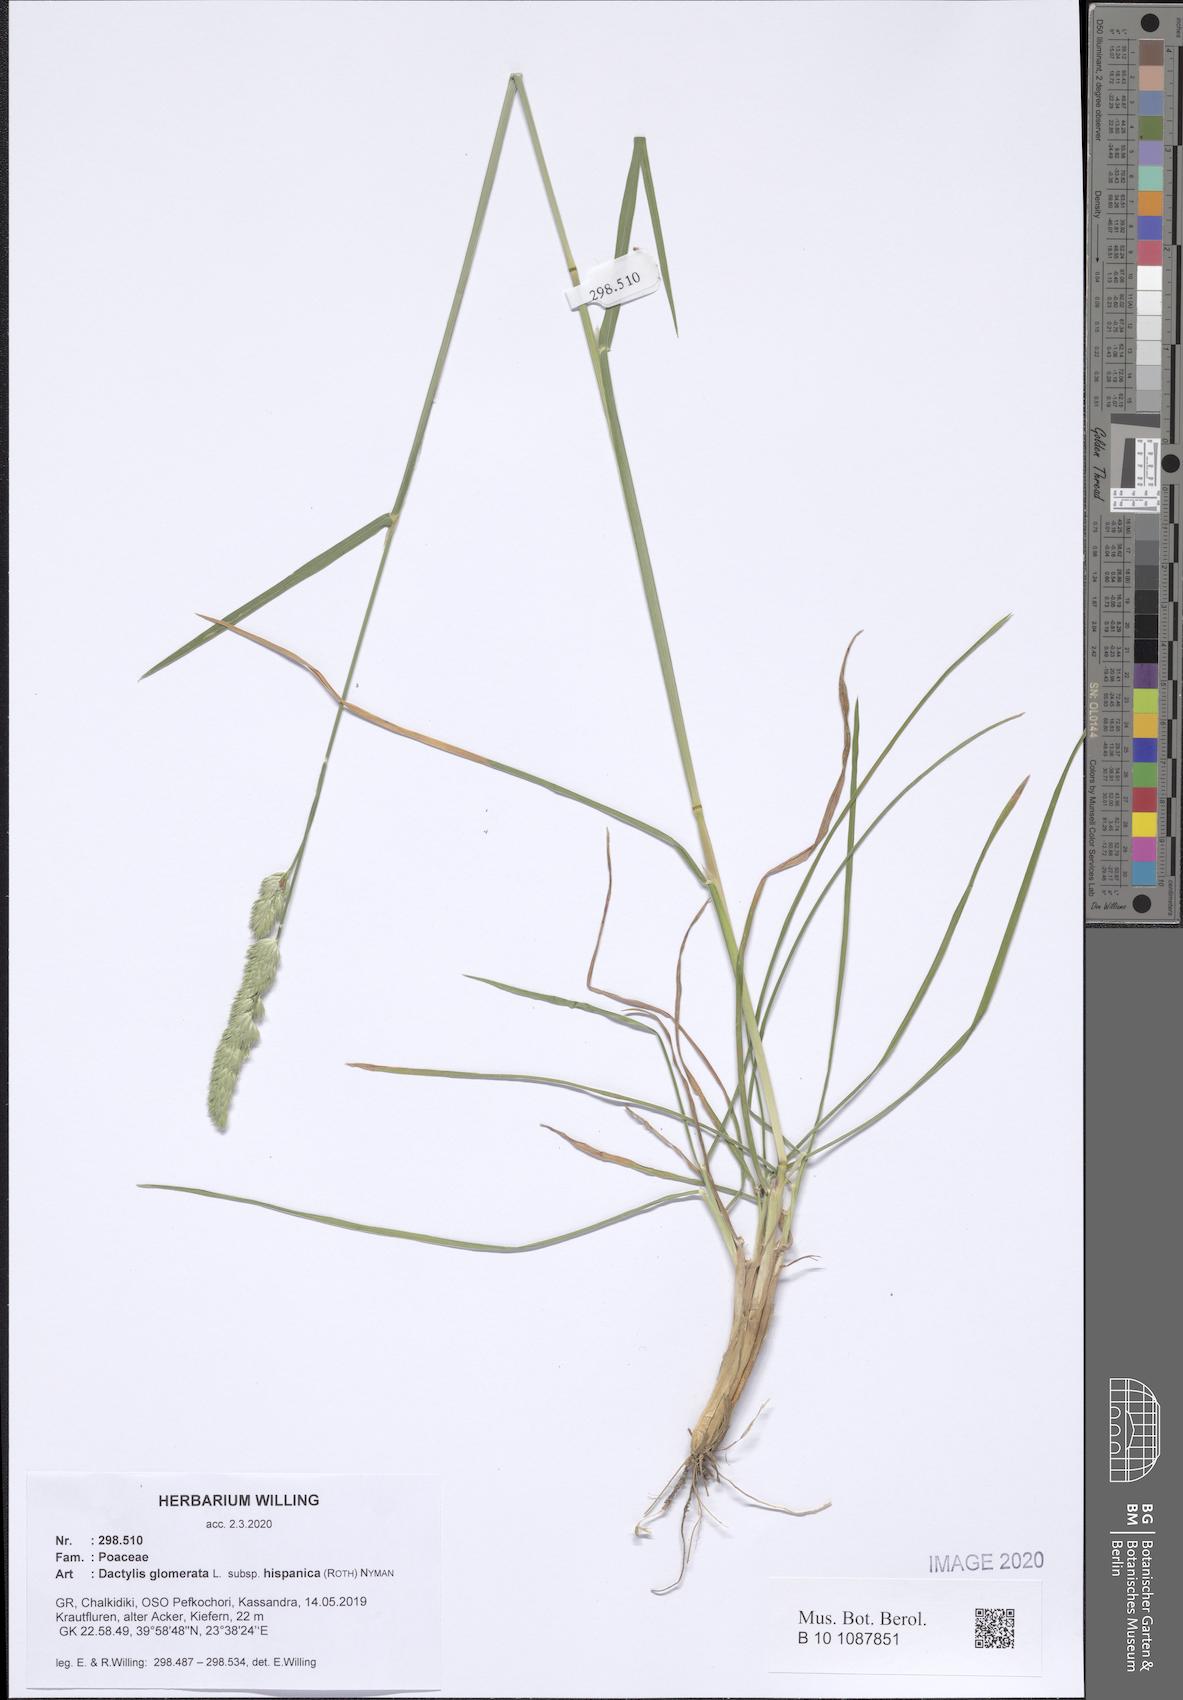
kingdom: Plantae
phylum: Tracheophyta
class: Liliopsida
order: Poales
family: Poaceae
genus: Dactylis
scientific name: Dactylis glomerata
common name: Orchardgrass
